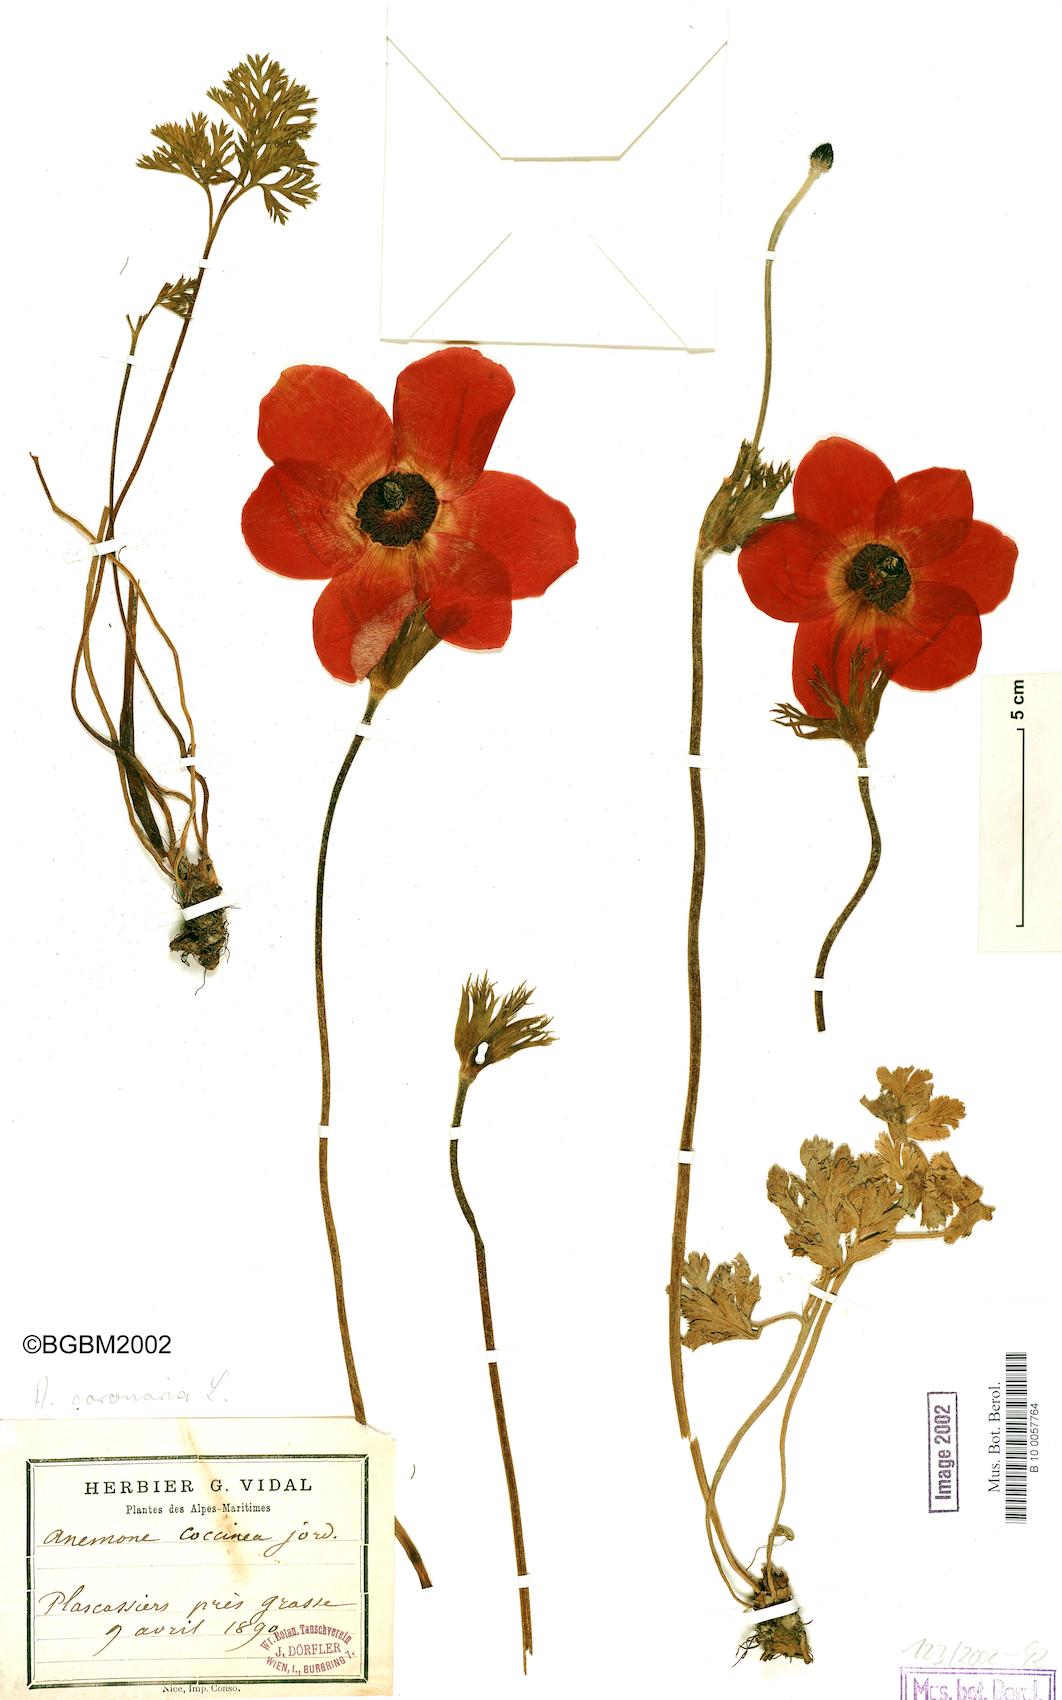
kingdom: Plantae
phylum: Tracheophyta
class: Magnoliopsida
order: Ranunculales
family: Ranunculaceae
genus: Anemone
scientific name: Anemone coronaria
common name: Poppy anemone
